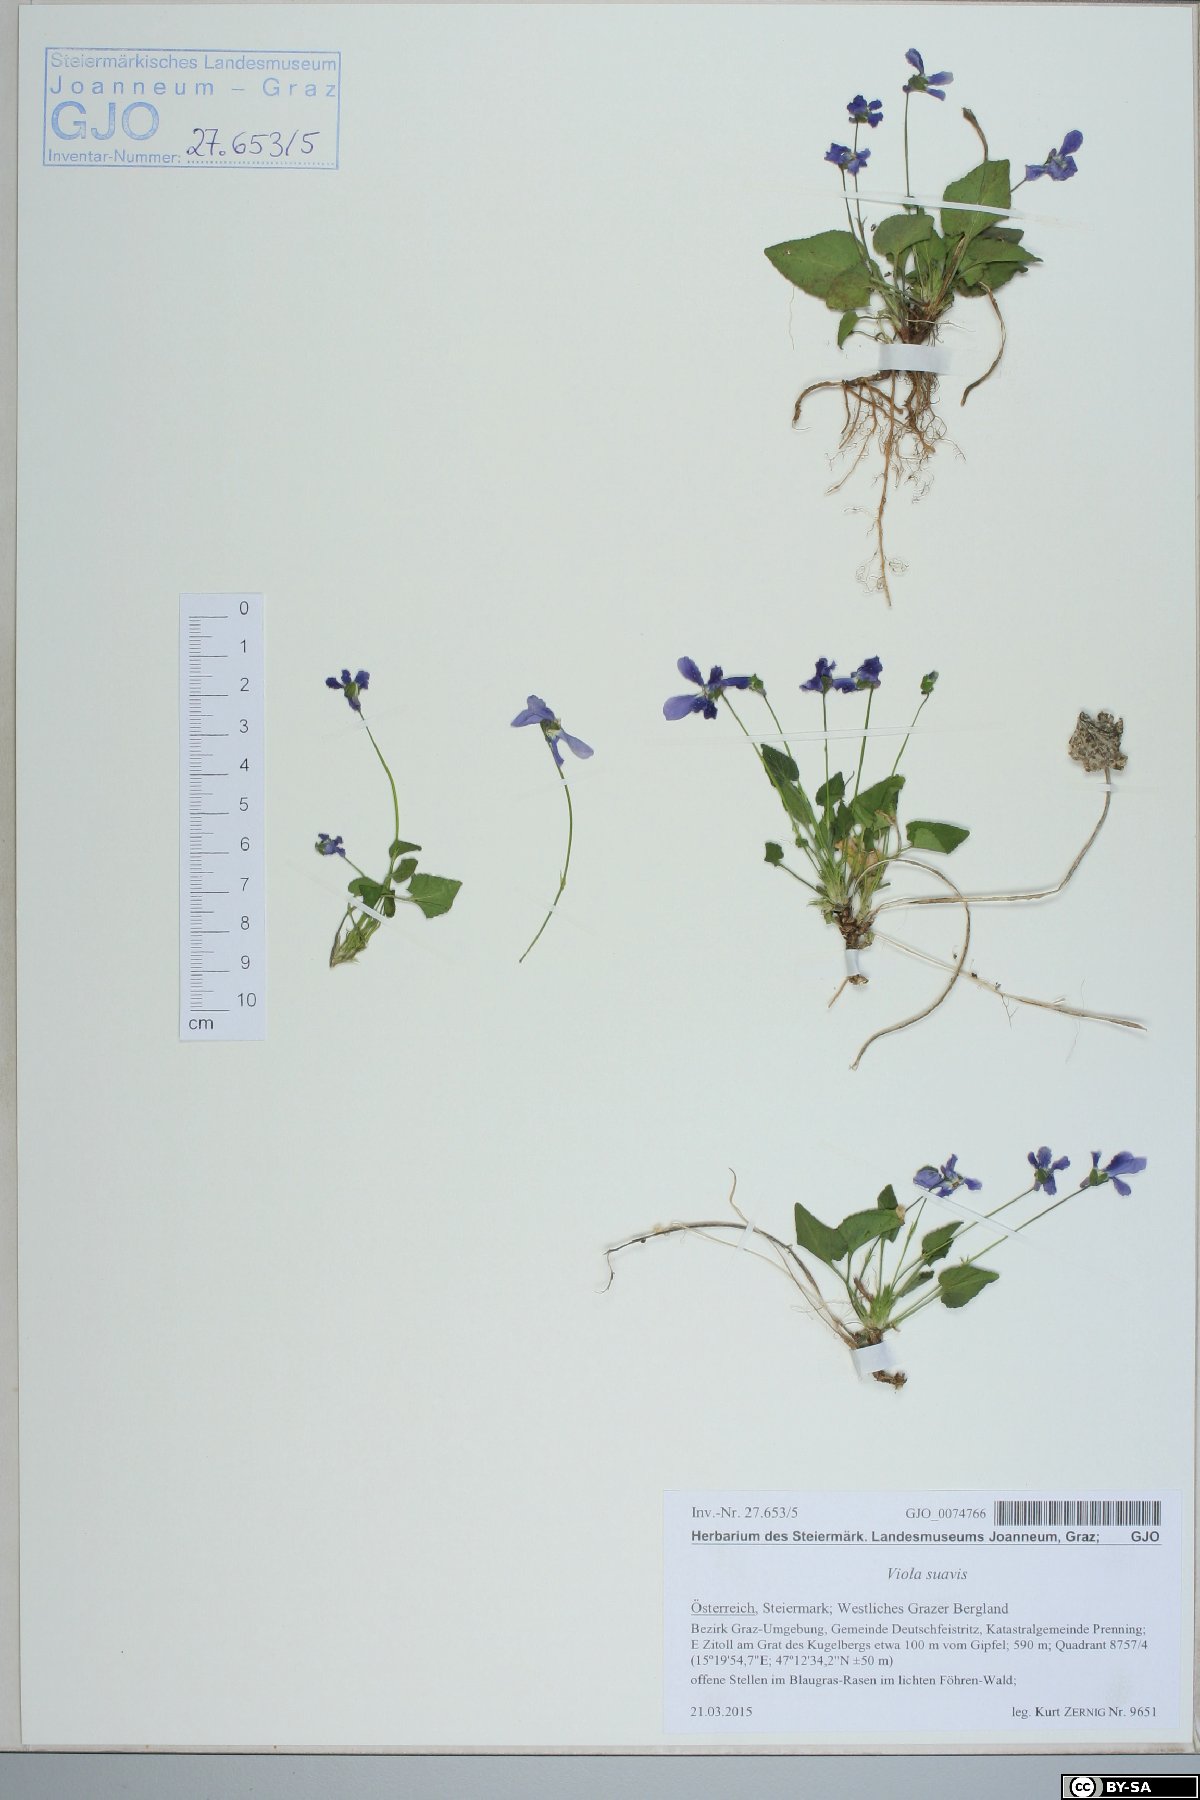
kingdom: Plantae
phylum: Tracheophyta
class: Magnoliopsida
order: Malpighiales
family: Violaceae
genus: Viola
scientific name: Viola suavis
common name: Russian violet
